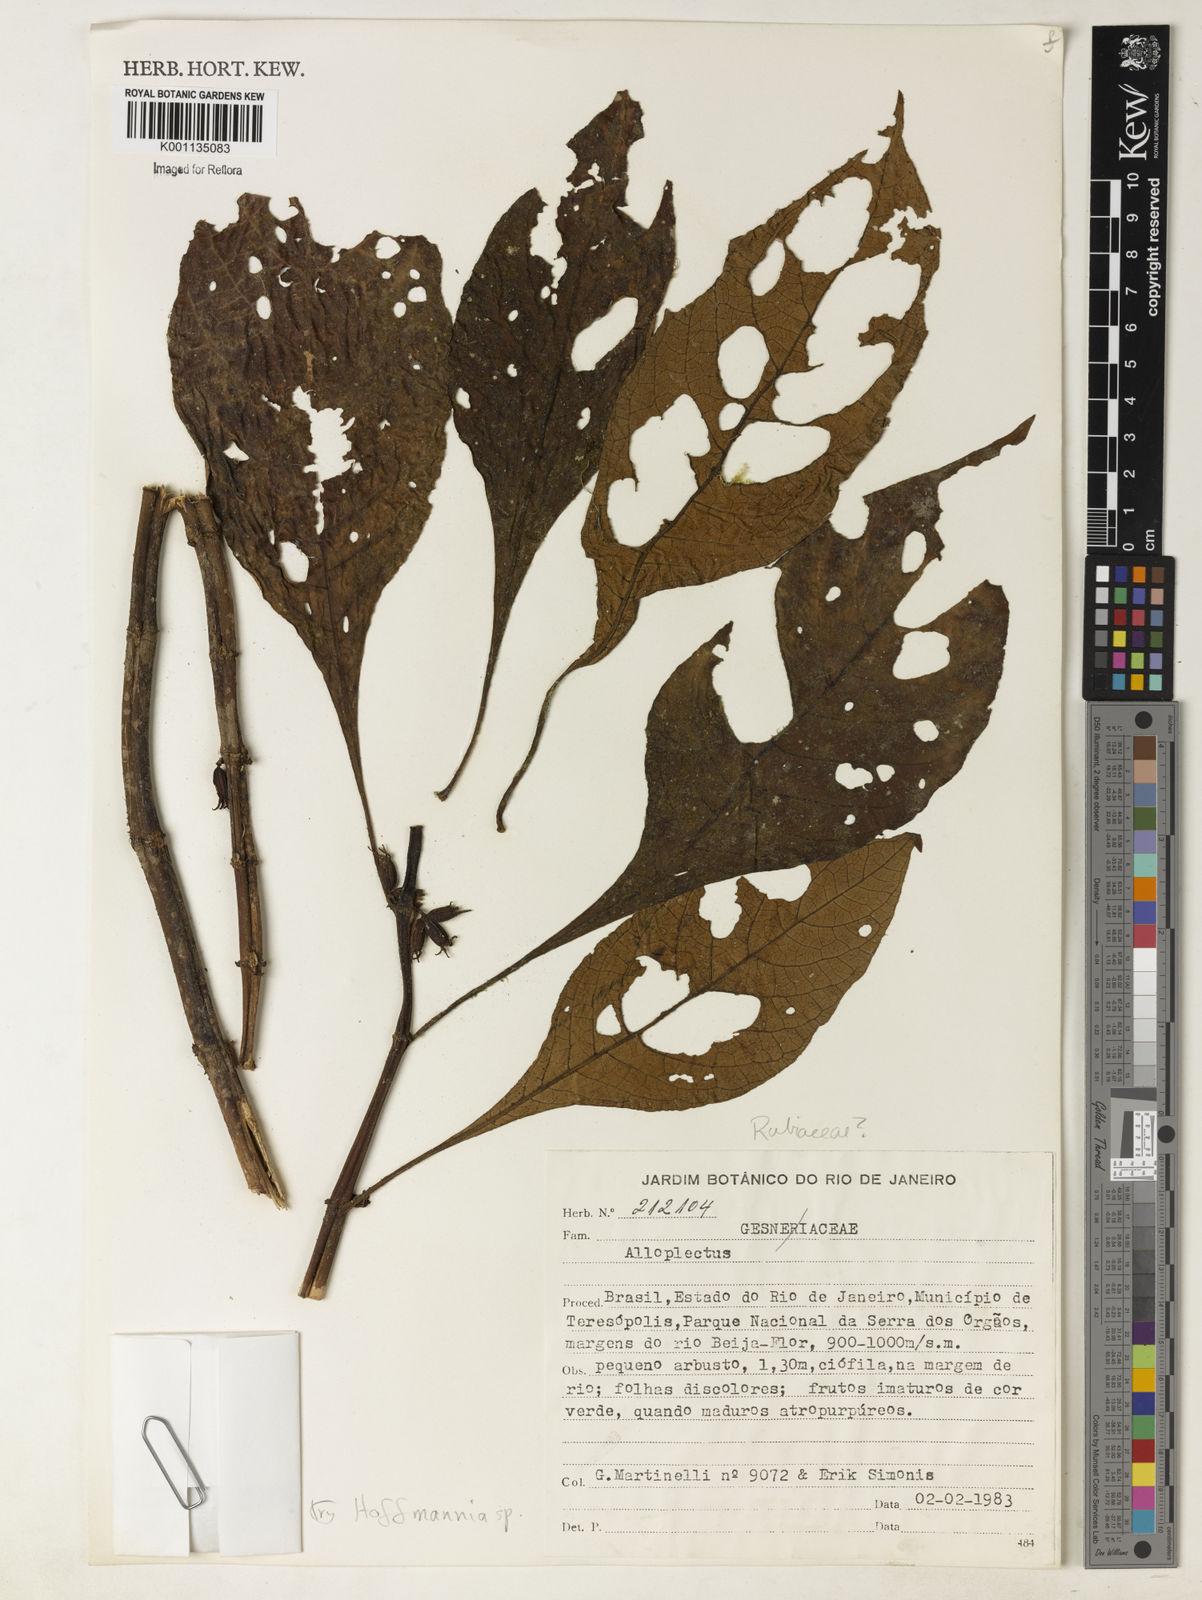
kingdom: Plantae
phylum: Tracheophyta
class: Magnoliopsida
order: Gentianales
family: Rubiaceae
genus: Hoffmannia
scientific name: Hoffmannia peckii
